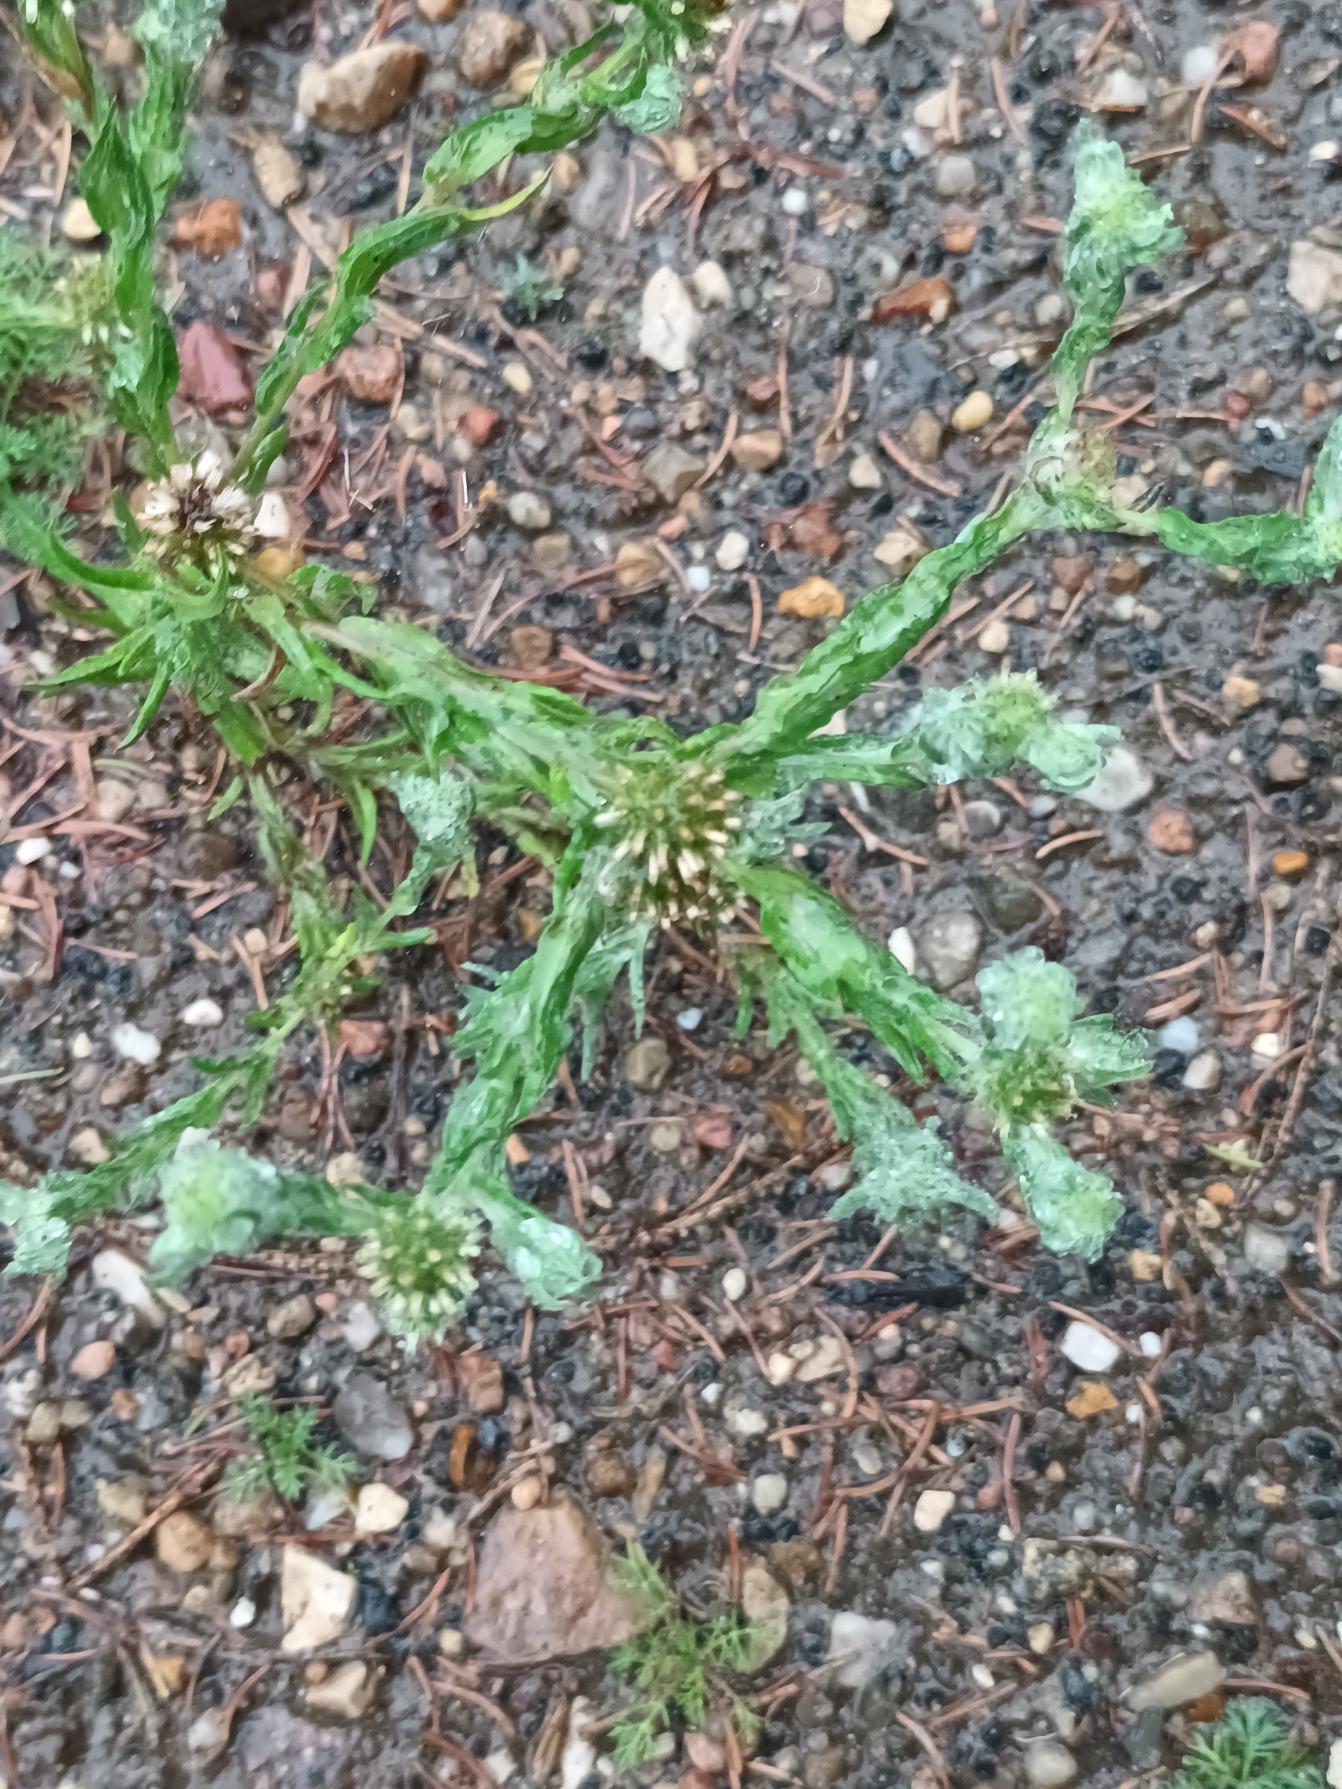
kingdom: Plantae
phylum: Tracheophyta
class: Magnoliopsida
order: Asterales
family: Asteraceae
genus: Filago
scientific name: Filago germanica
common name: Kugle-museurt
